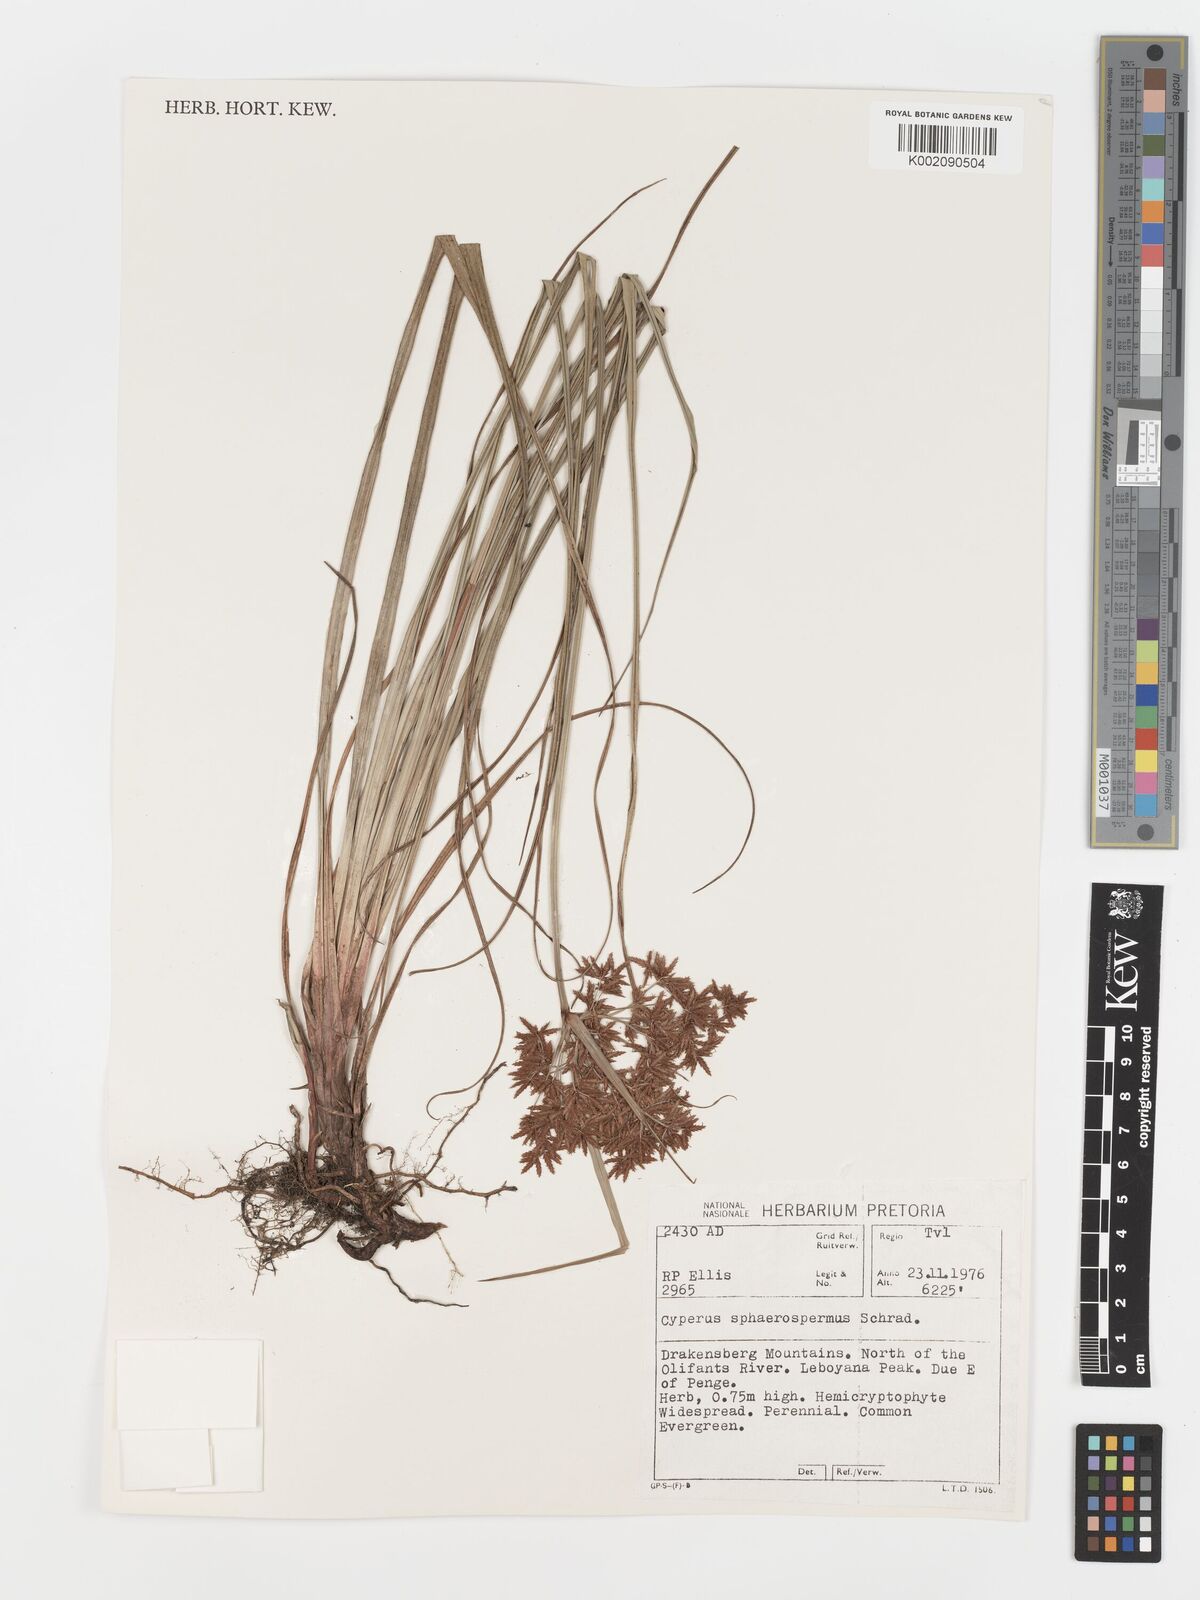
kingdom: Plantae
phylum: Tracheophyta
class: Liliopsida
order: Poales
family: Cyperaceae
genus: Cyperus
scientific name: Cyperus sphaerospermus
